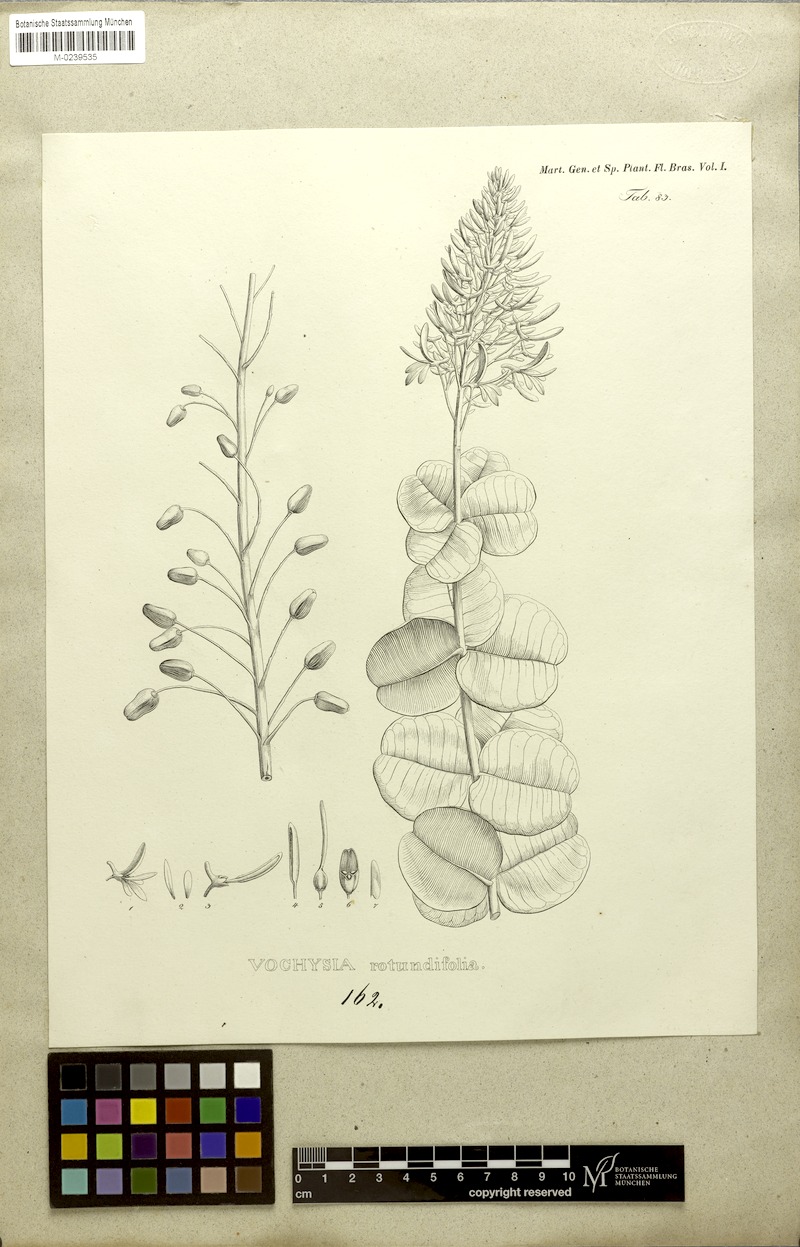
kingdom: Plantae
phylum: Tracheophyta
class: Magnoliopsida
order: Myrtales
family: Vochysiaceae
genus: Vochysia
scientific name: Vochysia rotundifolia
